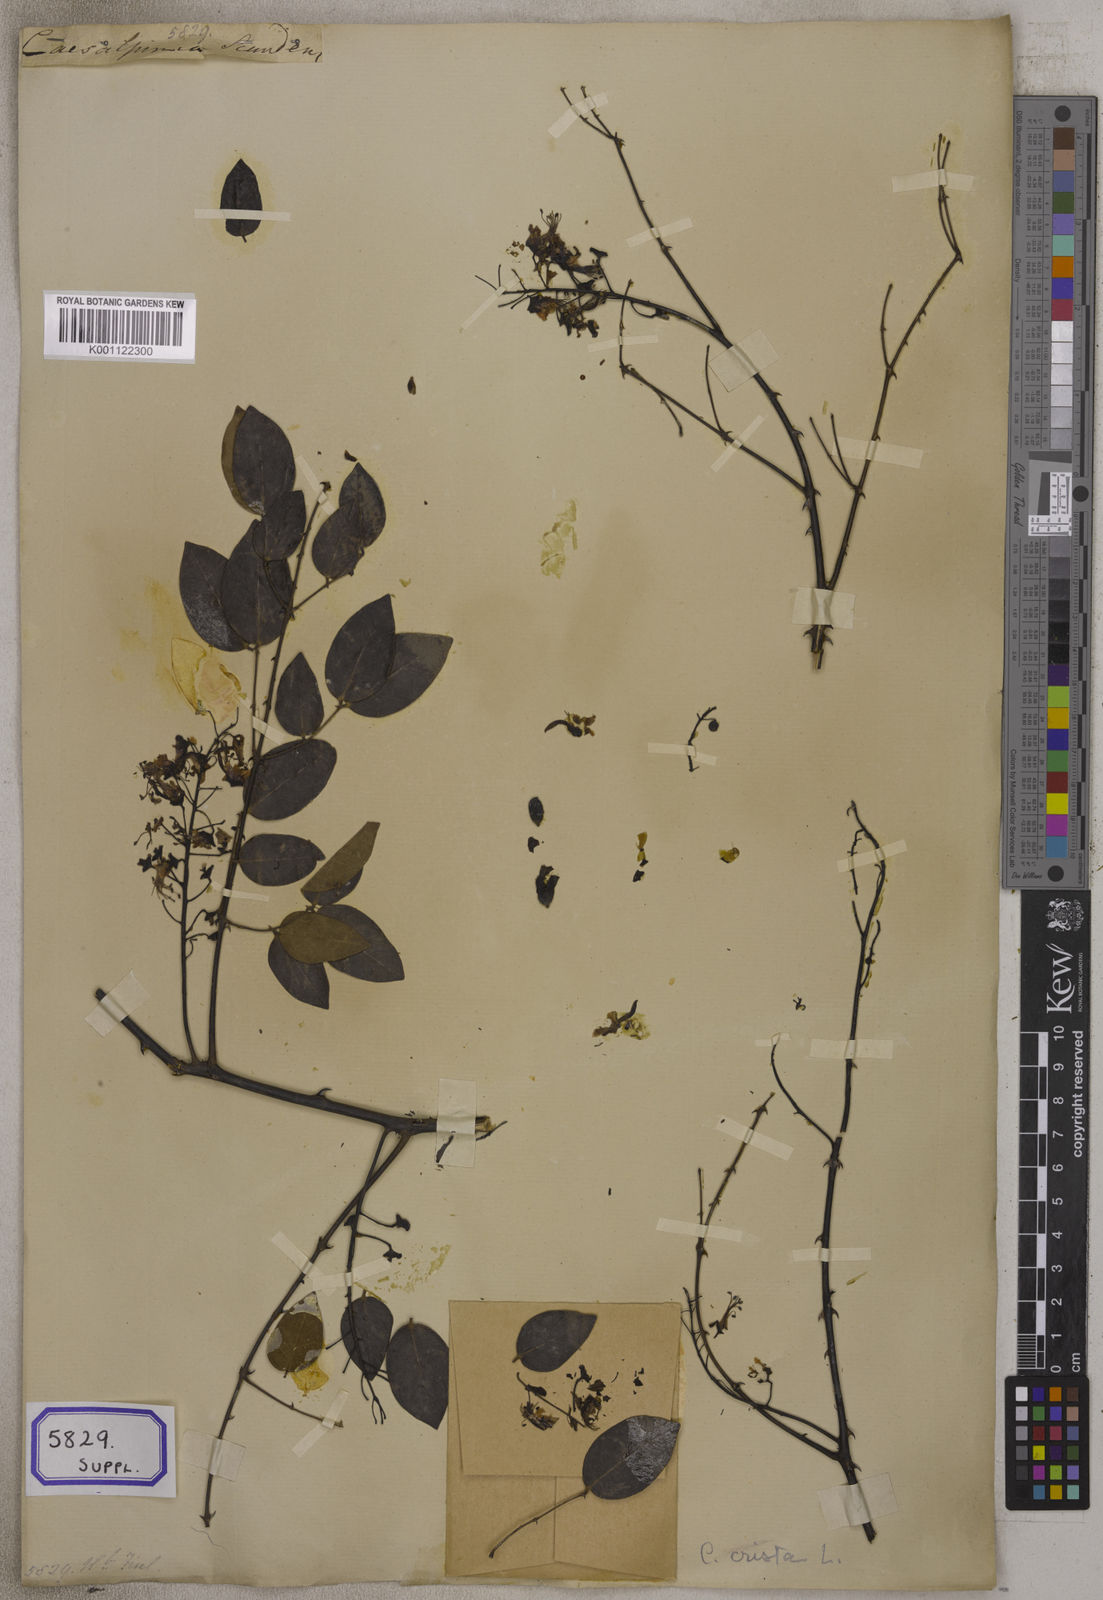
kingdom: Plantae
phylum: Tracheophyta
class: Magnoliopsida
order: Fabales
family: Fabaceae
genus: Caesalpinia
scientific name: Caesalpinia Ticanto crista
